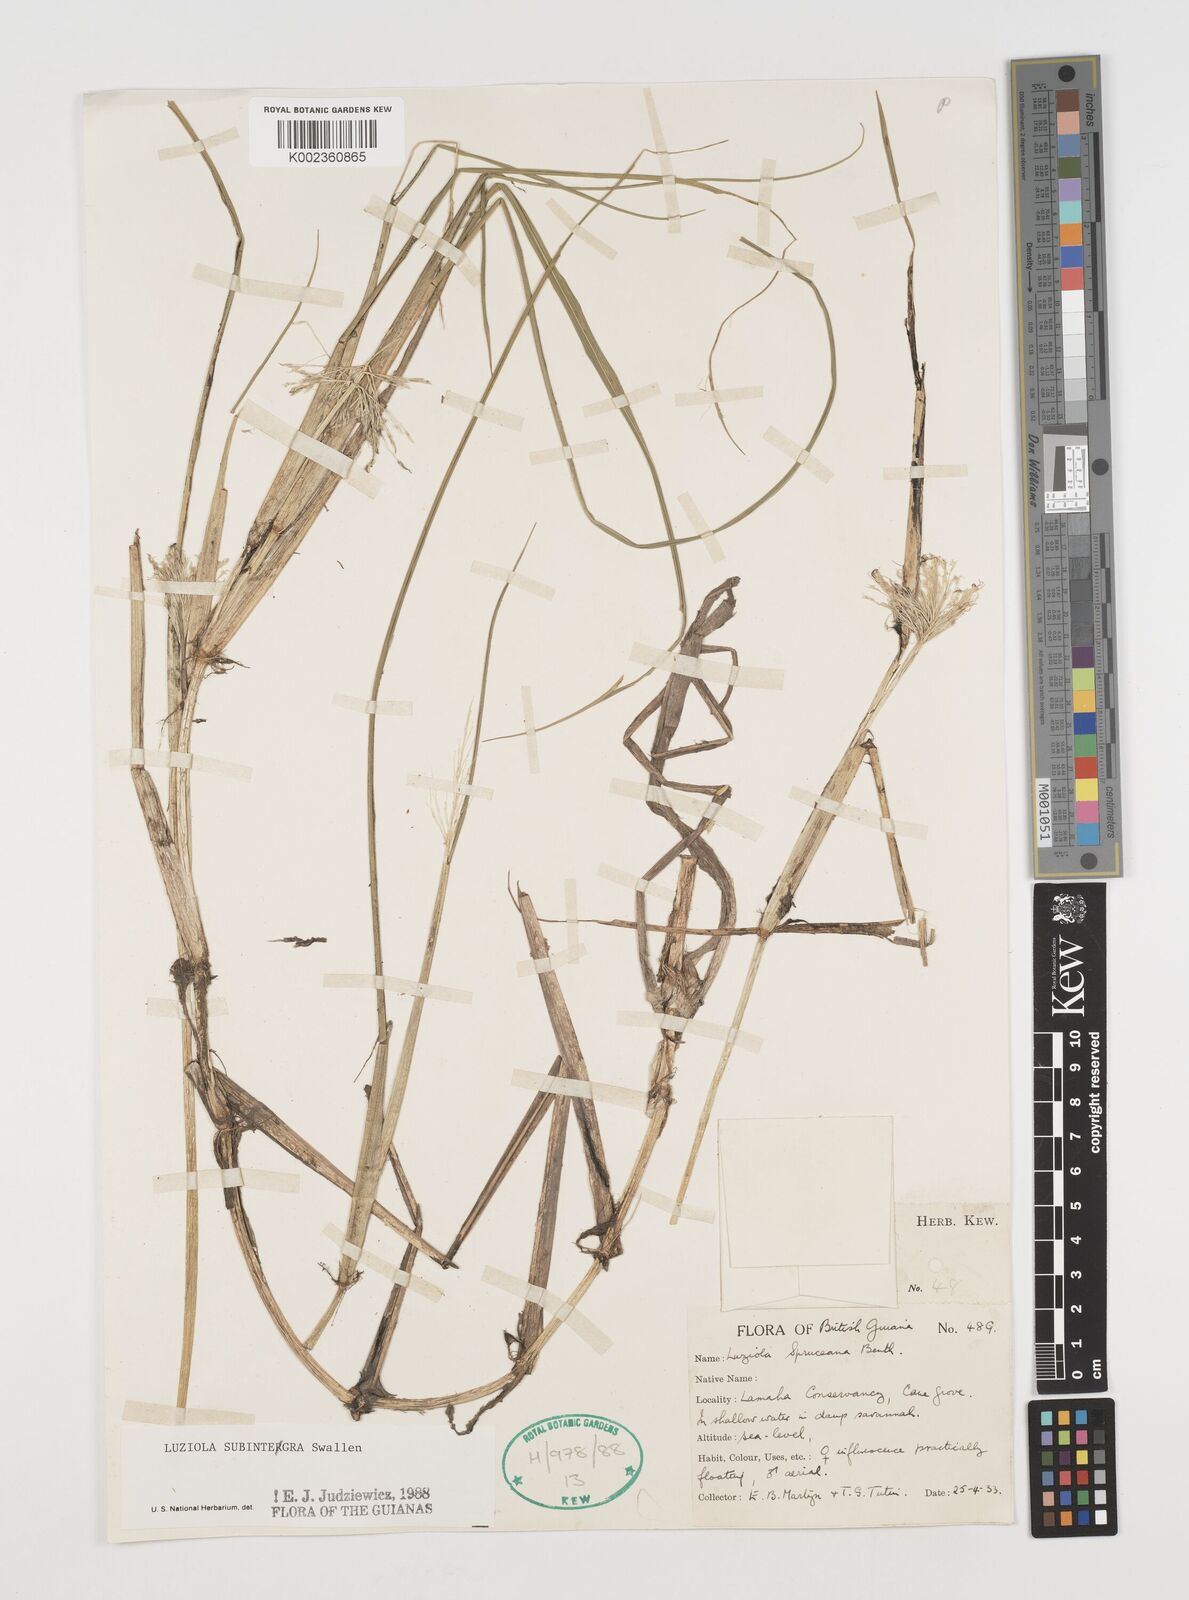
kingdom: Plantae
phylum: Tracheophyta
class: Liliopsida
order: Poales
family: Poaceae
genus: Luziola
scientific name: Luziola subintegra
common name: Large watergrass
